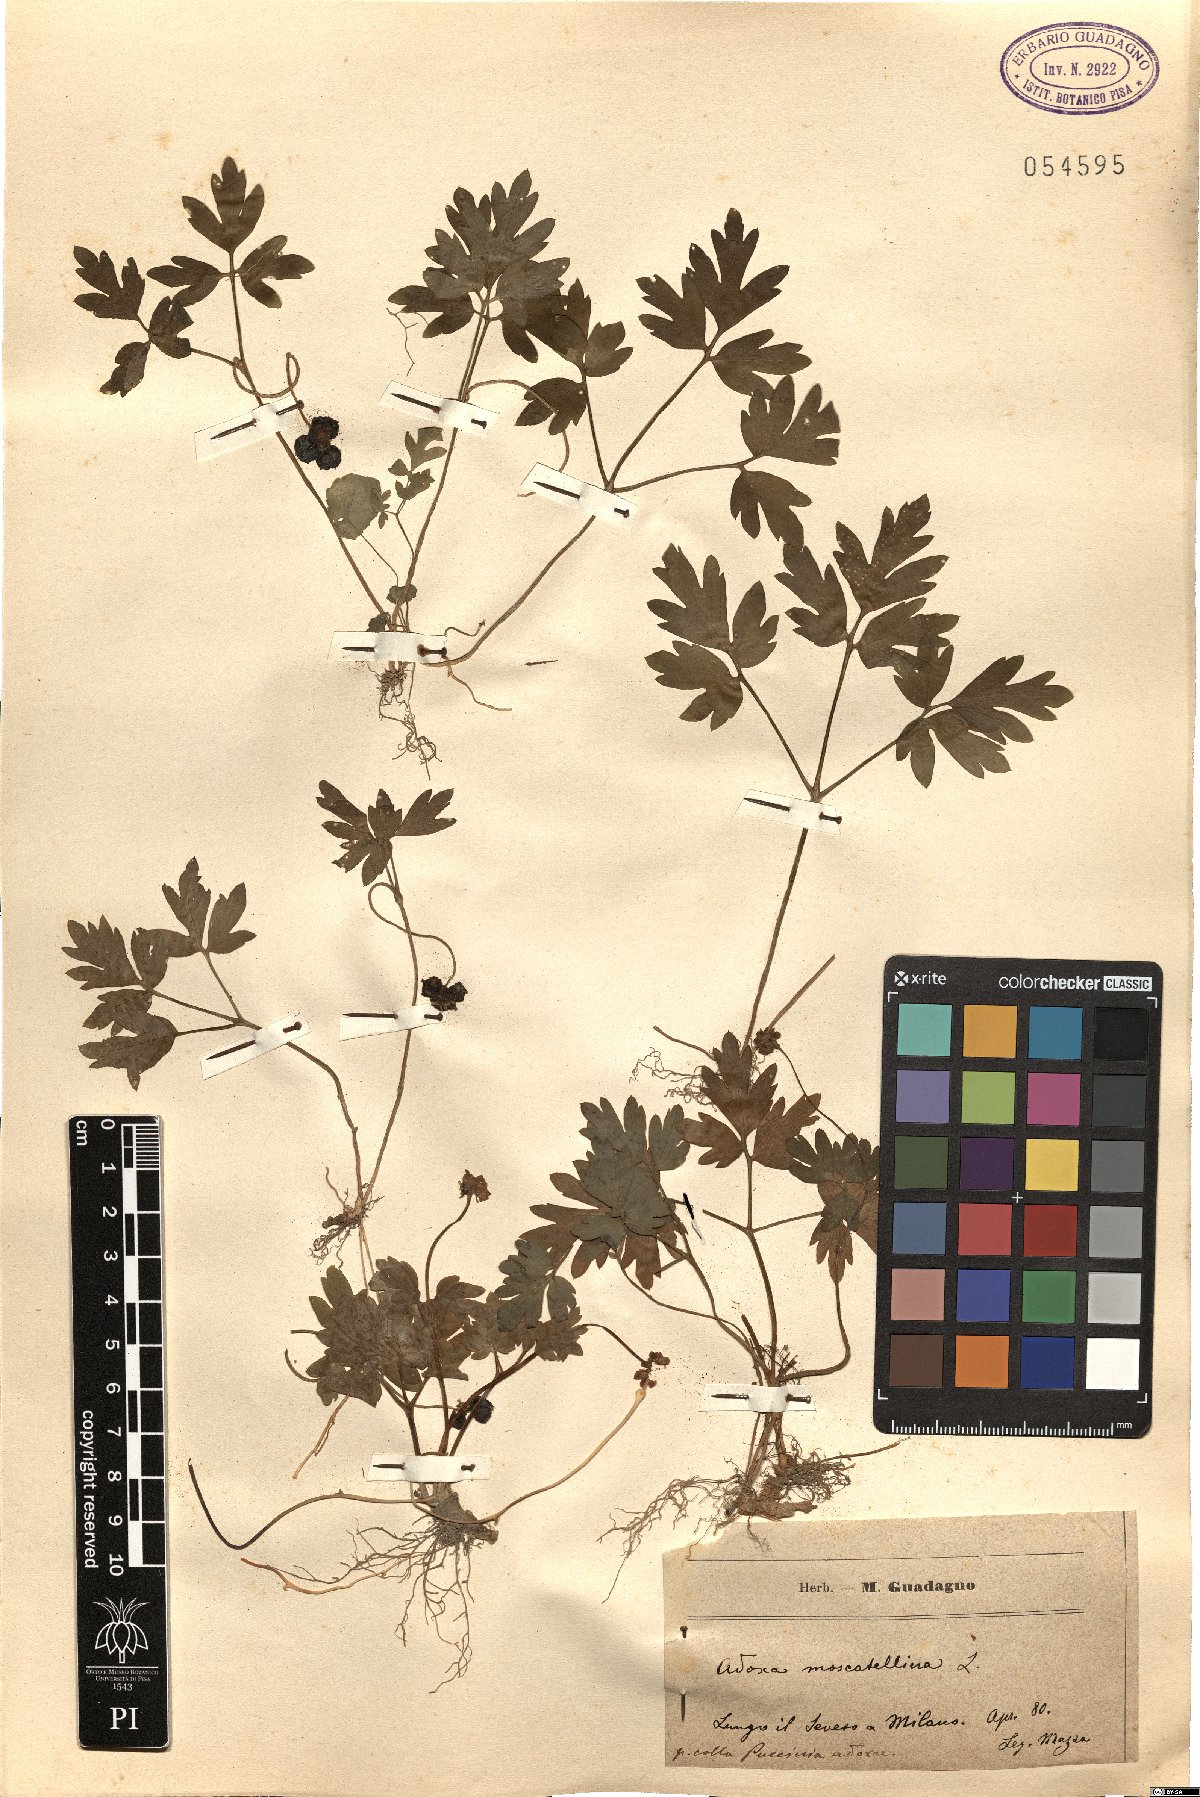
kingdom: Plantae
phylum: Tracheophyta
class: Magnoliopsida
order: Dipsacales
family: Viburnaceae
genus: Adoxa
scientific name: Adoxa moschatellina
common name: Moschatel
